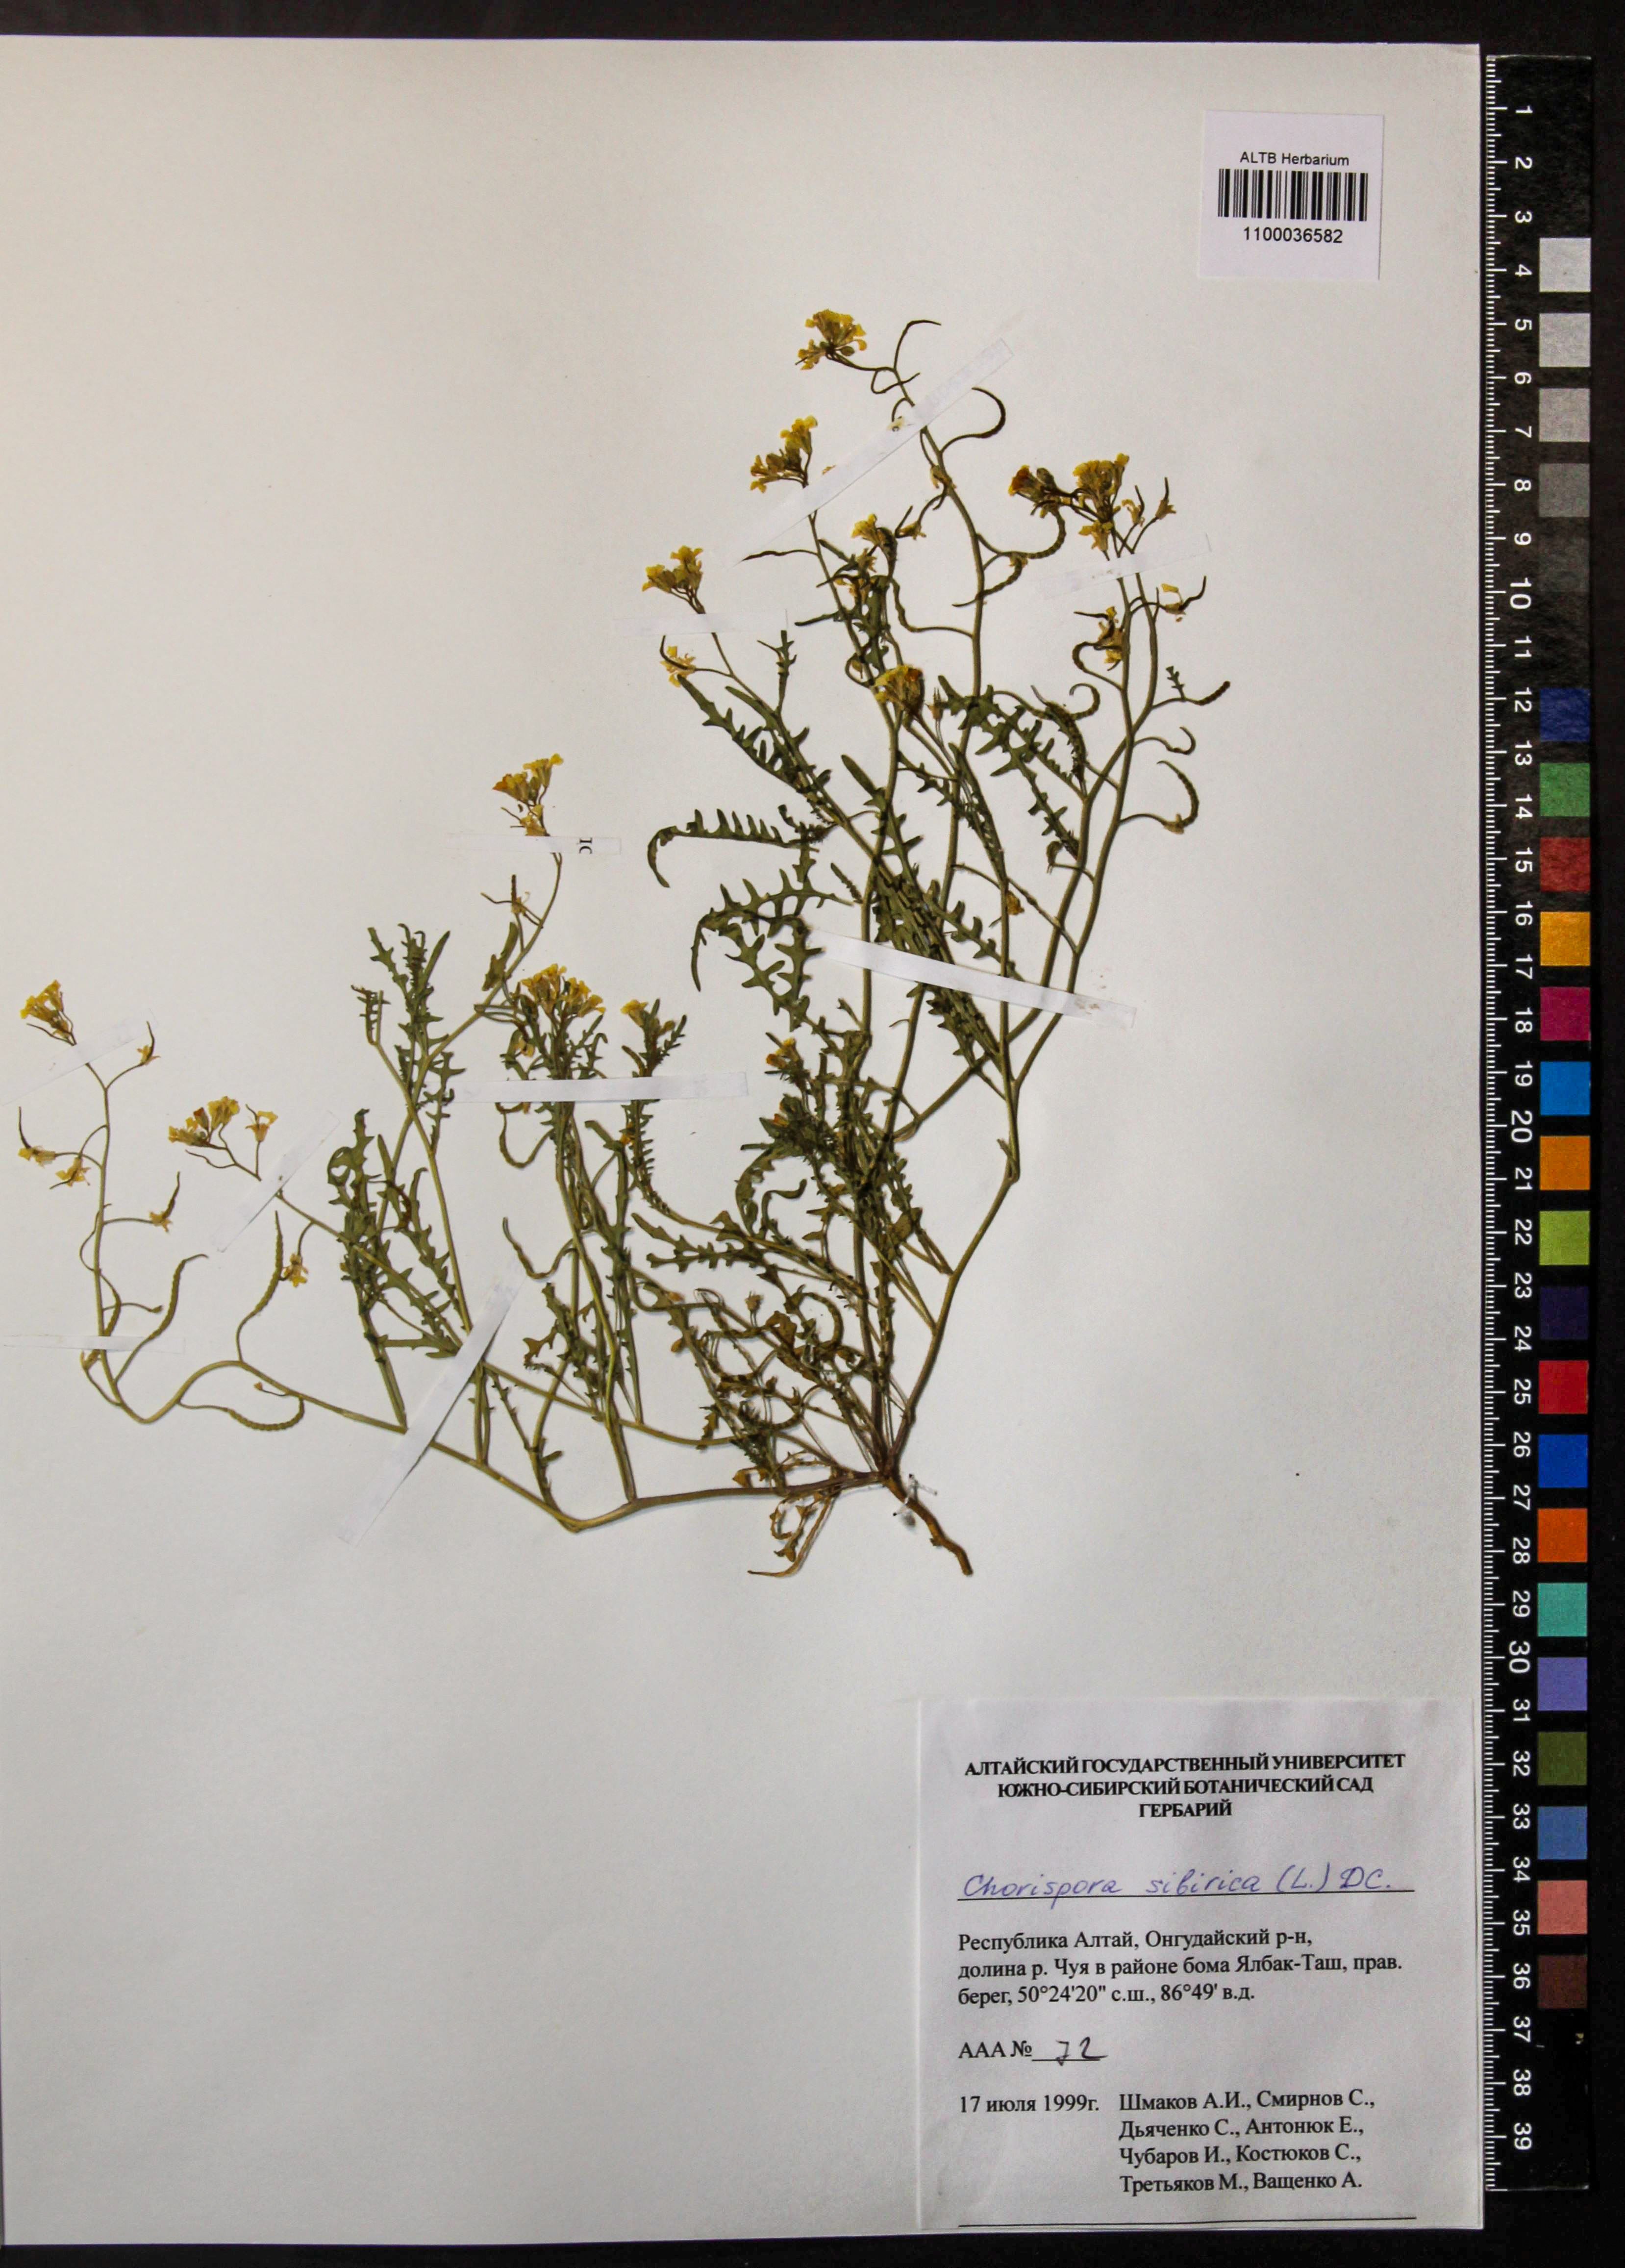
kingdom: Plantae
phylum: Tracheophyta
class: Magnoliopsida
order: Brassicales
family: Brassicaceae
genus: Chorispora
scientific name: Chorispora sibirica
